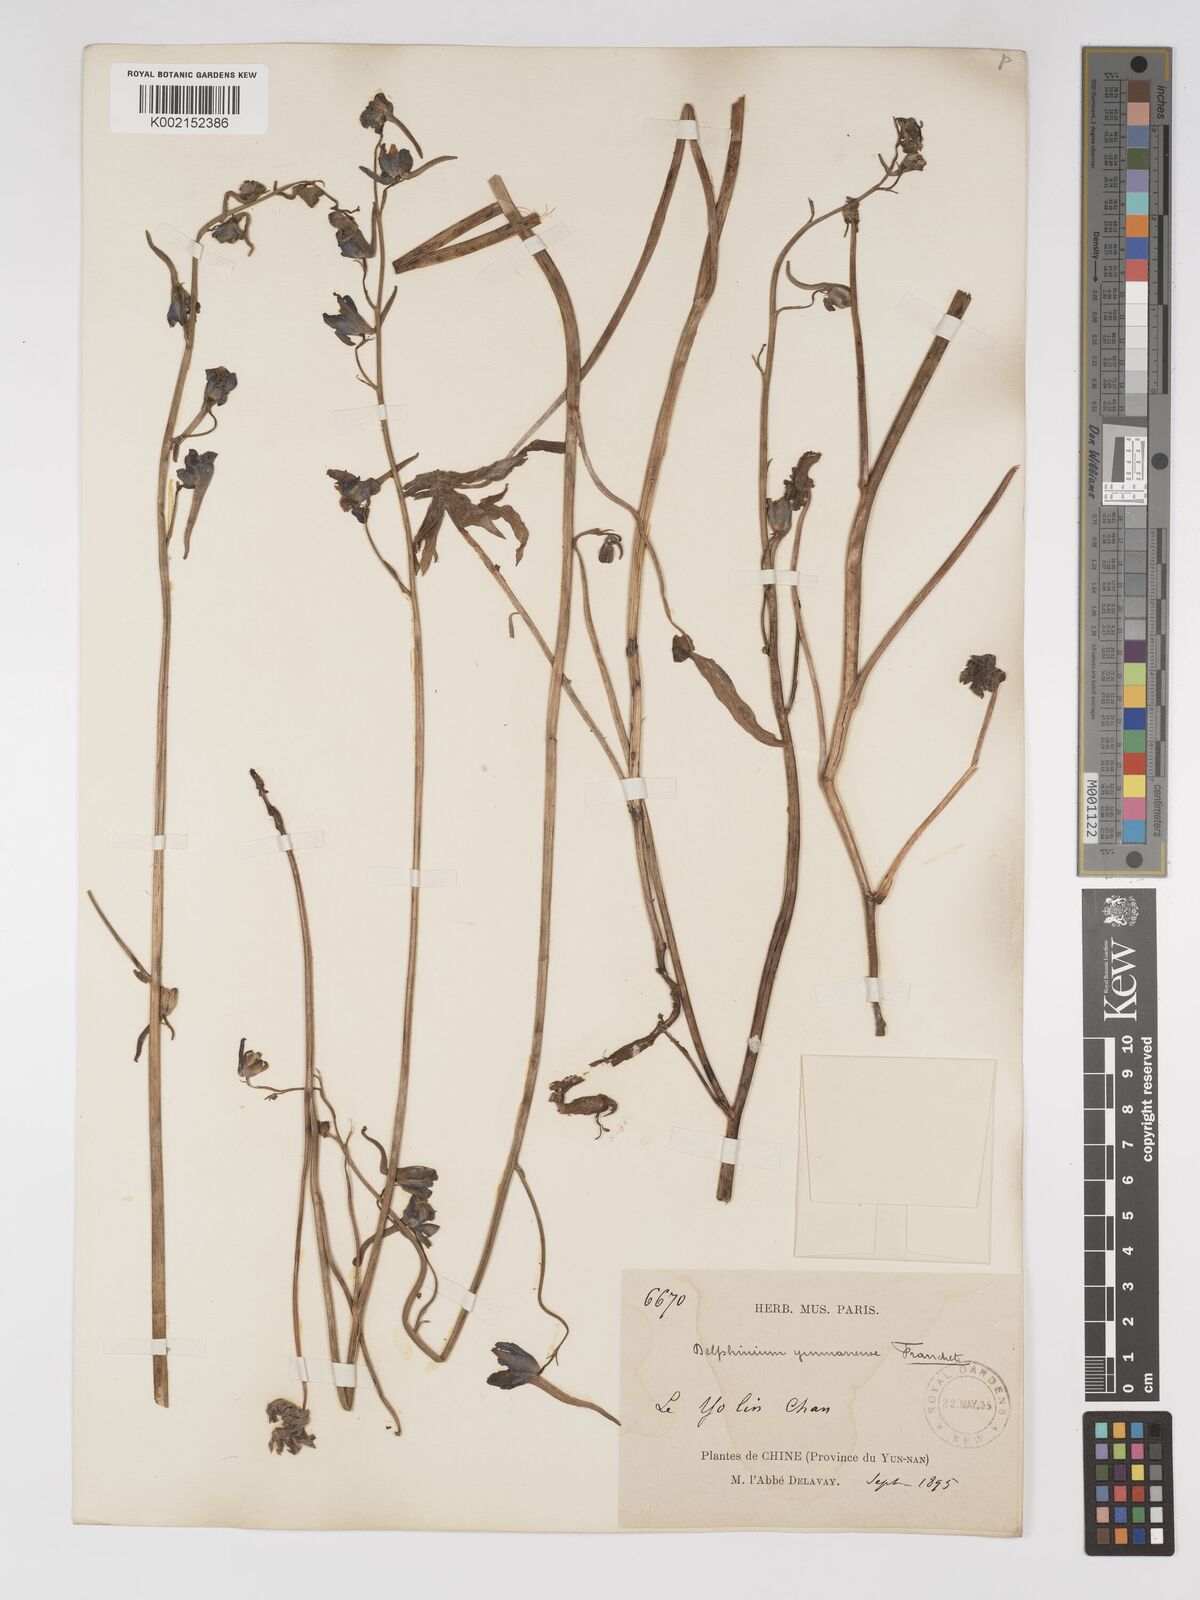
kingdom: Plantae
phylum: Tracheophyta
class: Magnoliopsida
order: Ranunculales
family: Ranunculaceae
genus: Delphinium
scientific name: Delphinium yunnanense
